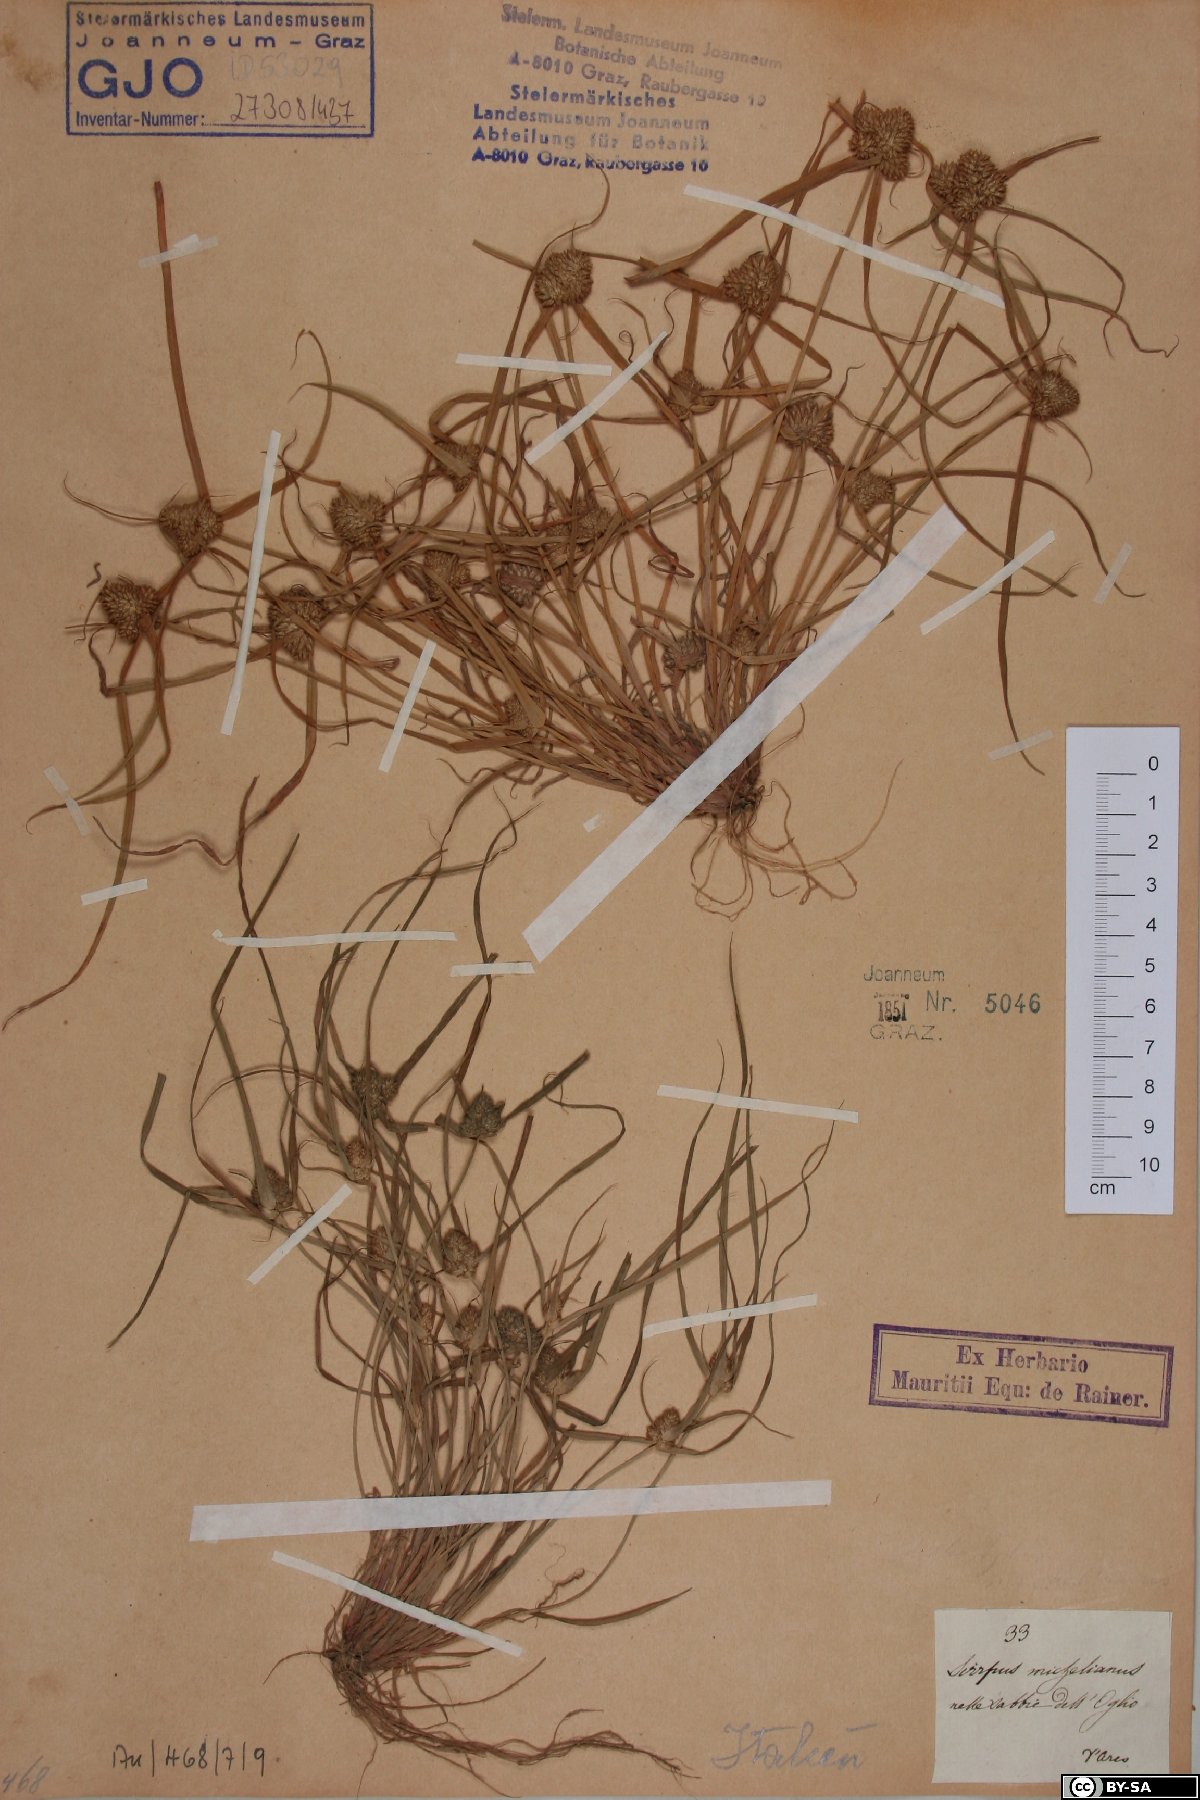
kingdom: Plantae
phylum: Tracheophyta
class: Liliopsida
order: Poales
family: Cyperaceae
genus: Cyperus
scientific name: Cyperus michelianus
